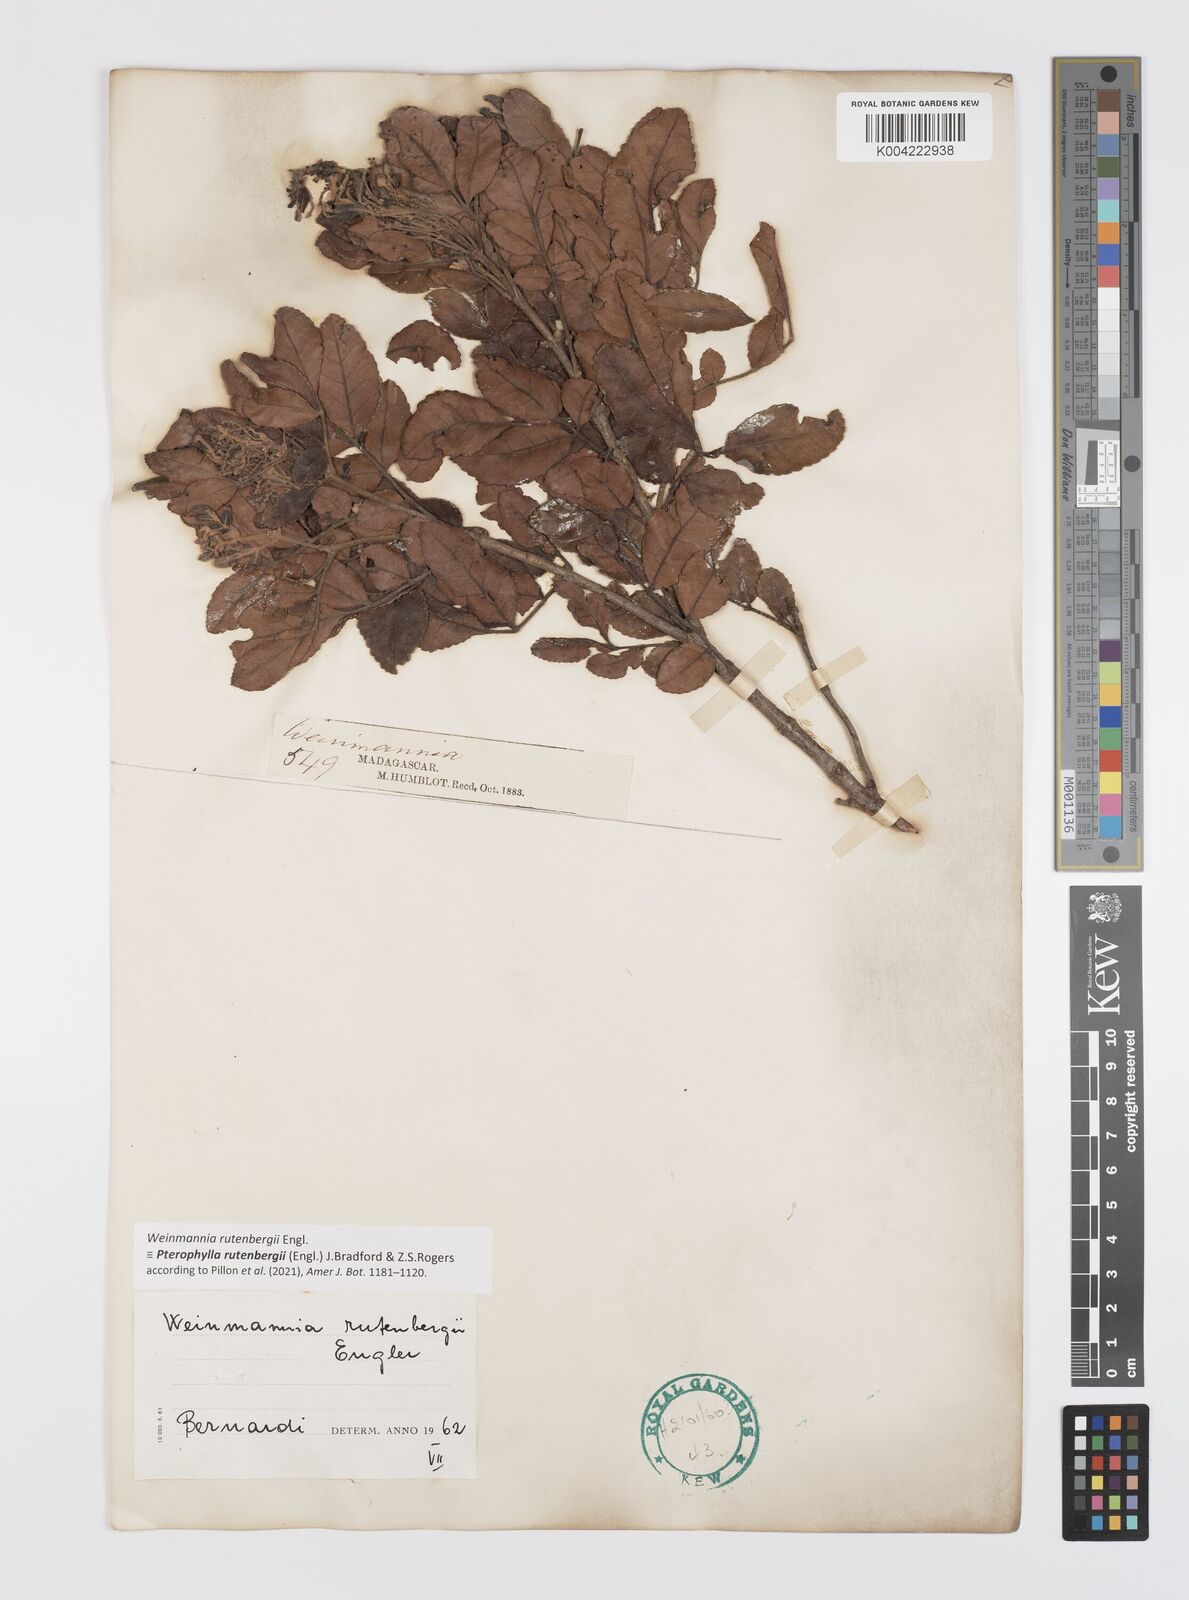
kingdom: Plantae
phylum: Tracheophyta
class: Magnoliopsida
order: Oxalidales
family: Cunoniaceae
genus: Pterophylla
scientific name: Pterophylla rutenbergii
